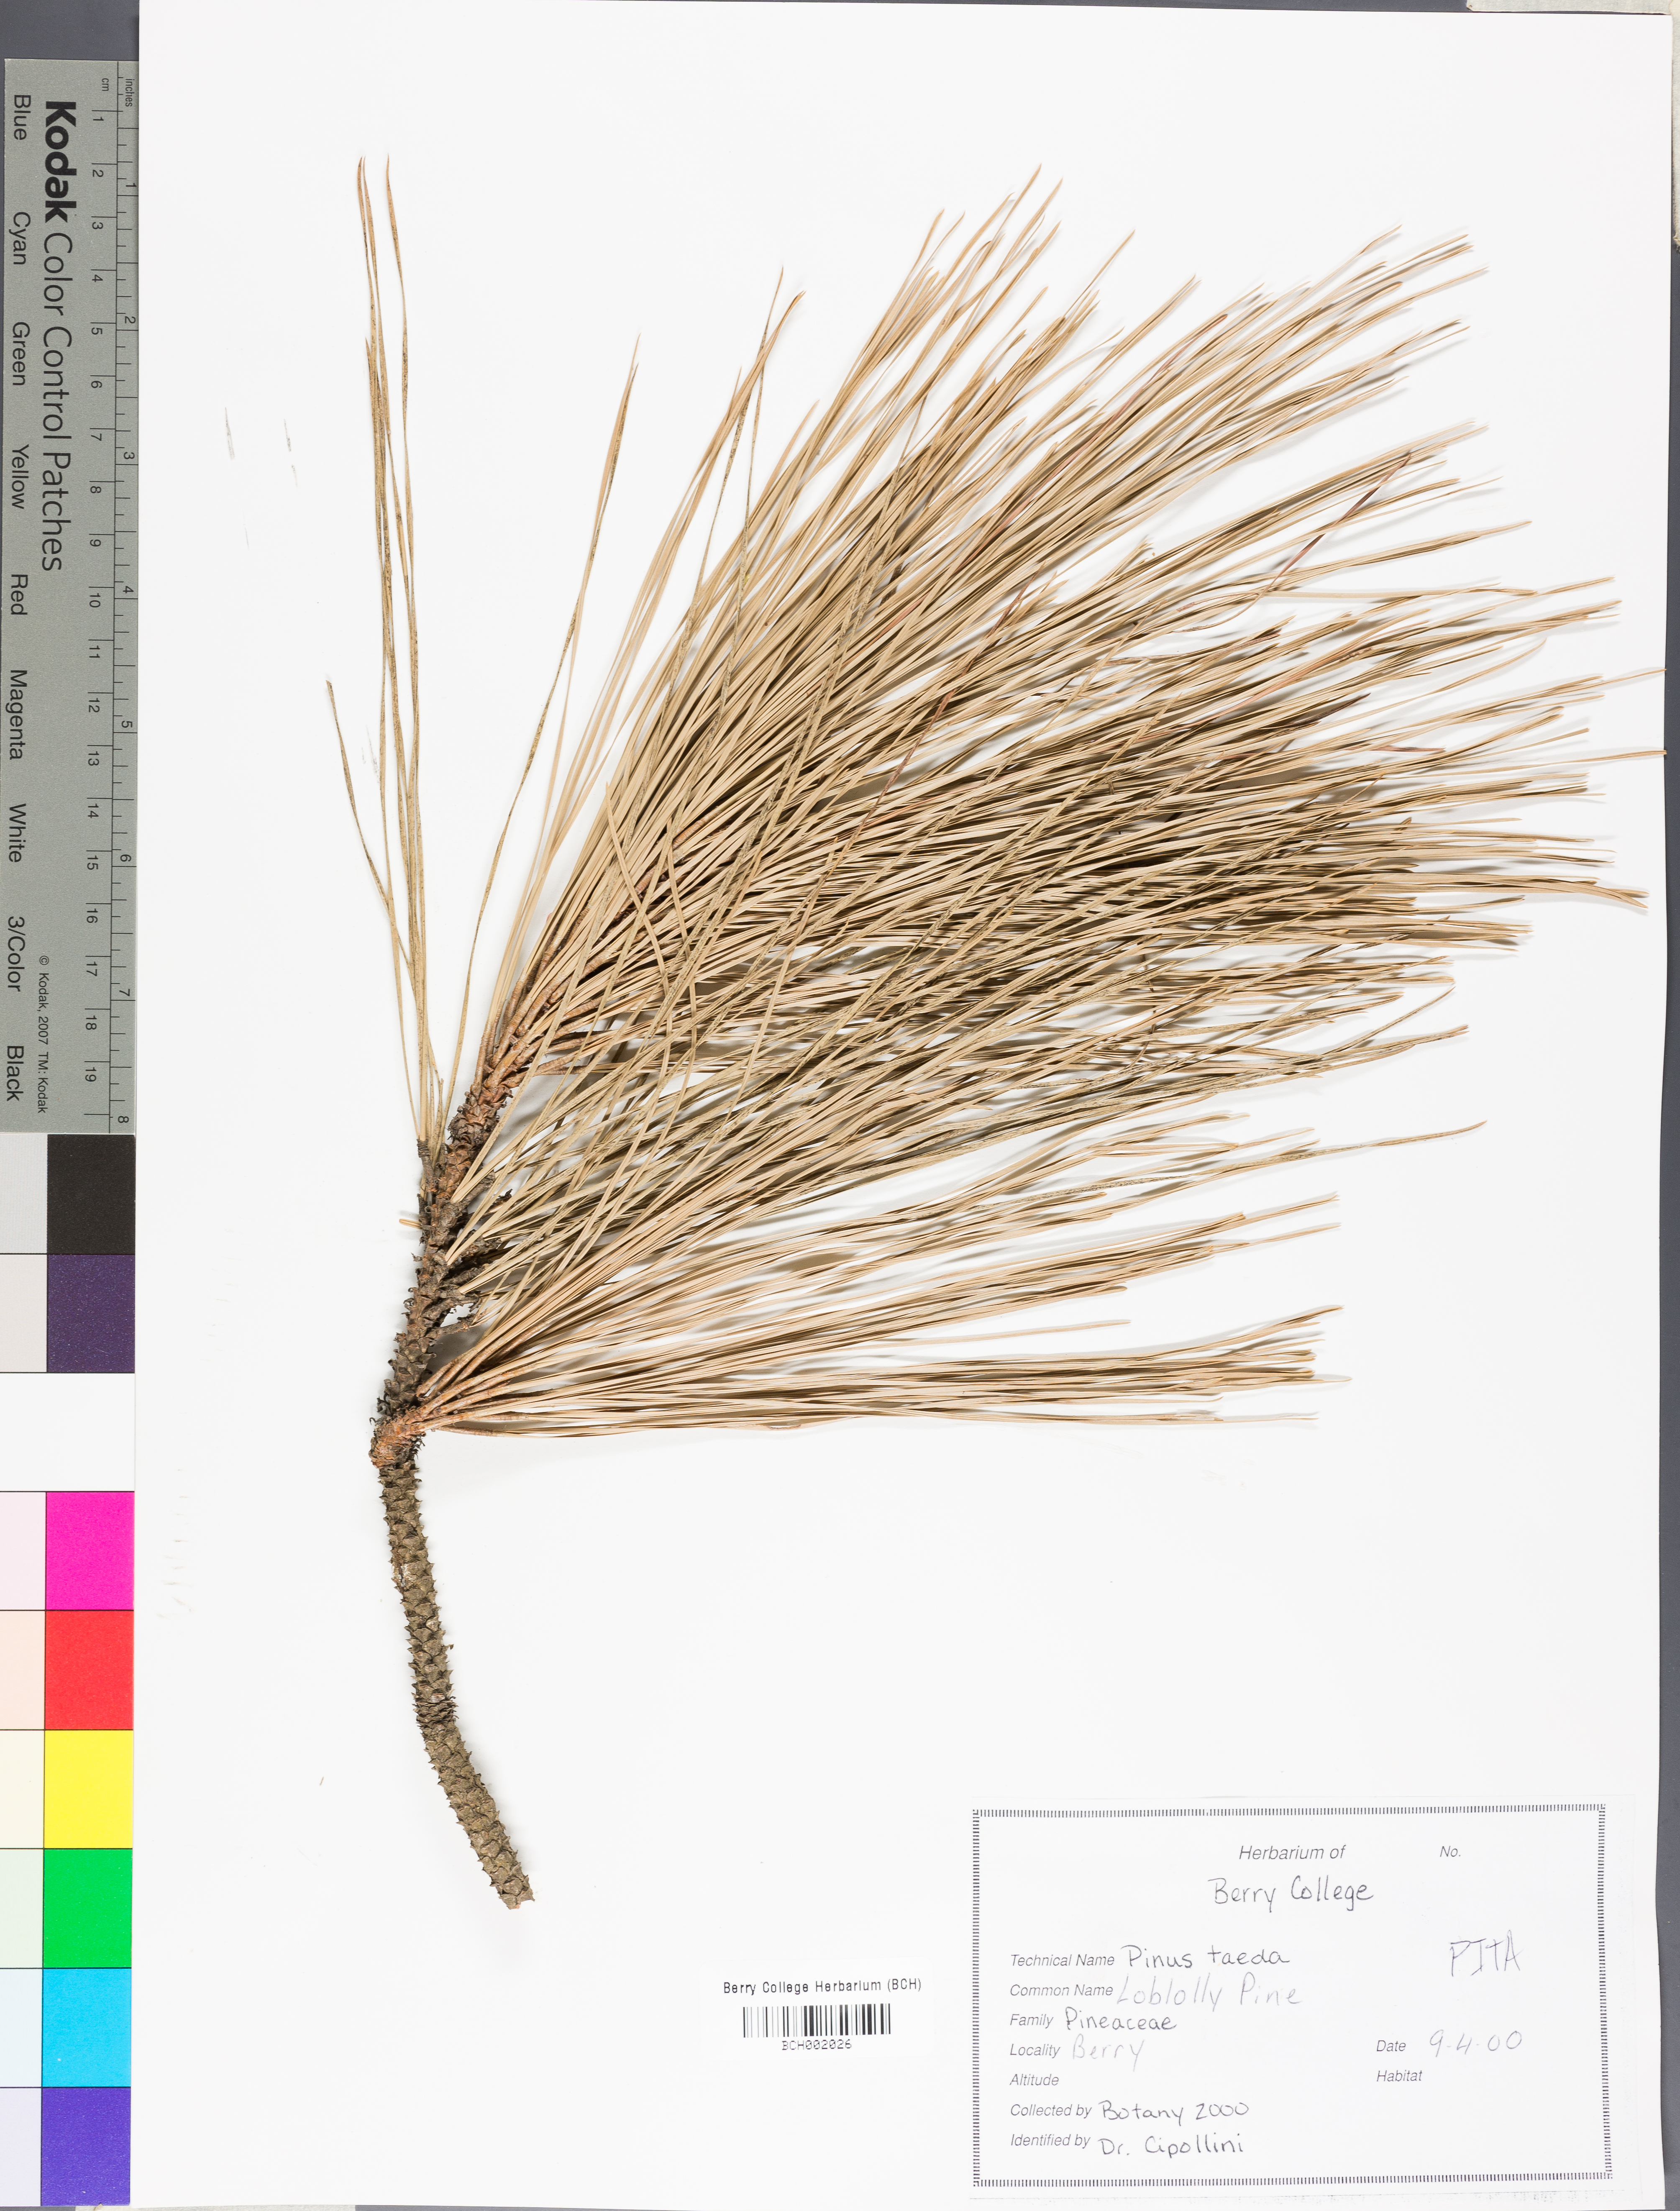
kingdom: Plantae
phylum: Tracheophyta
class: Pinopsida
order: Pinales
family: Pinaceae
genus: Pinus
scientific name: Pinus taeda
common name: Loblolly pine
